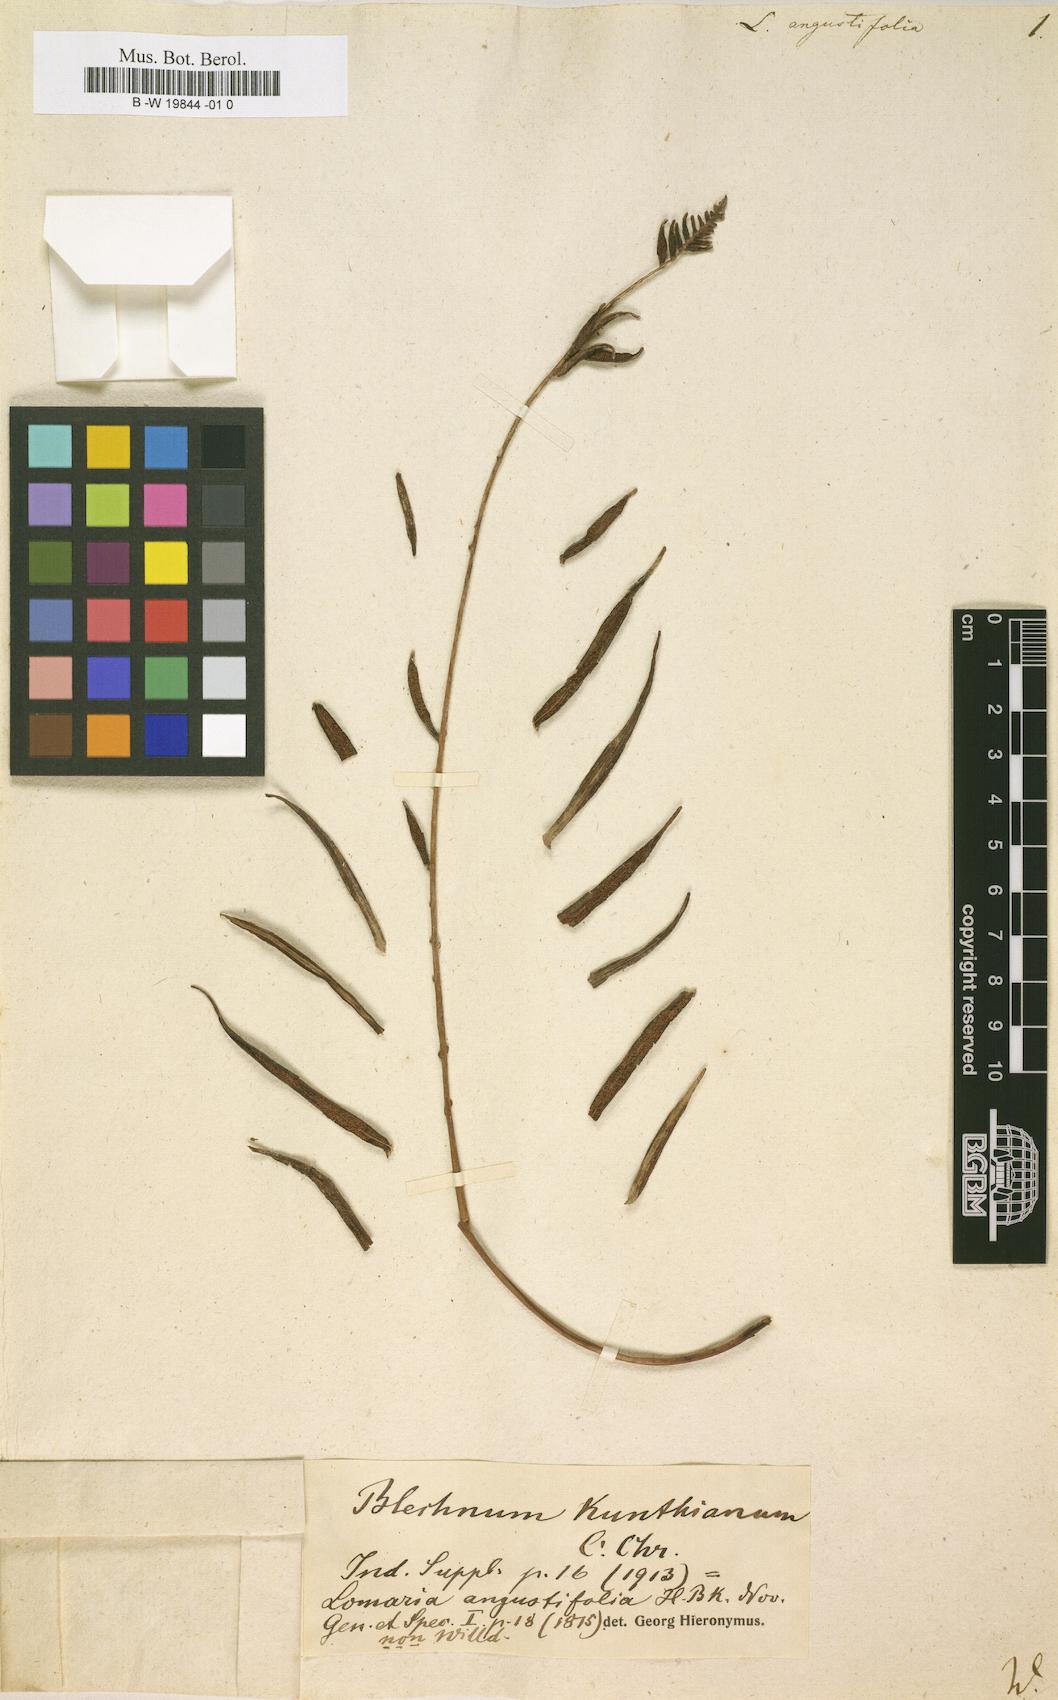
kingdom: Plantae
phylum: Tracheophyta
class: Polypodiopsida
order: Polypodiales
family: Blechnaceae
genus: Lomaridium
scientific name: Lomaridium angustifolium
